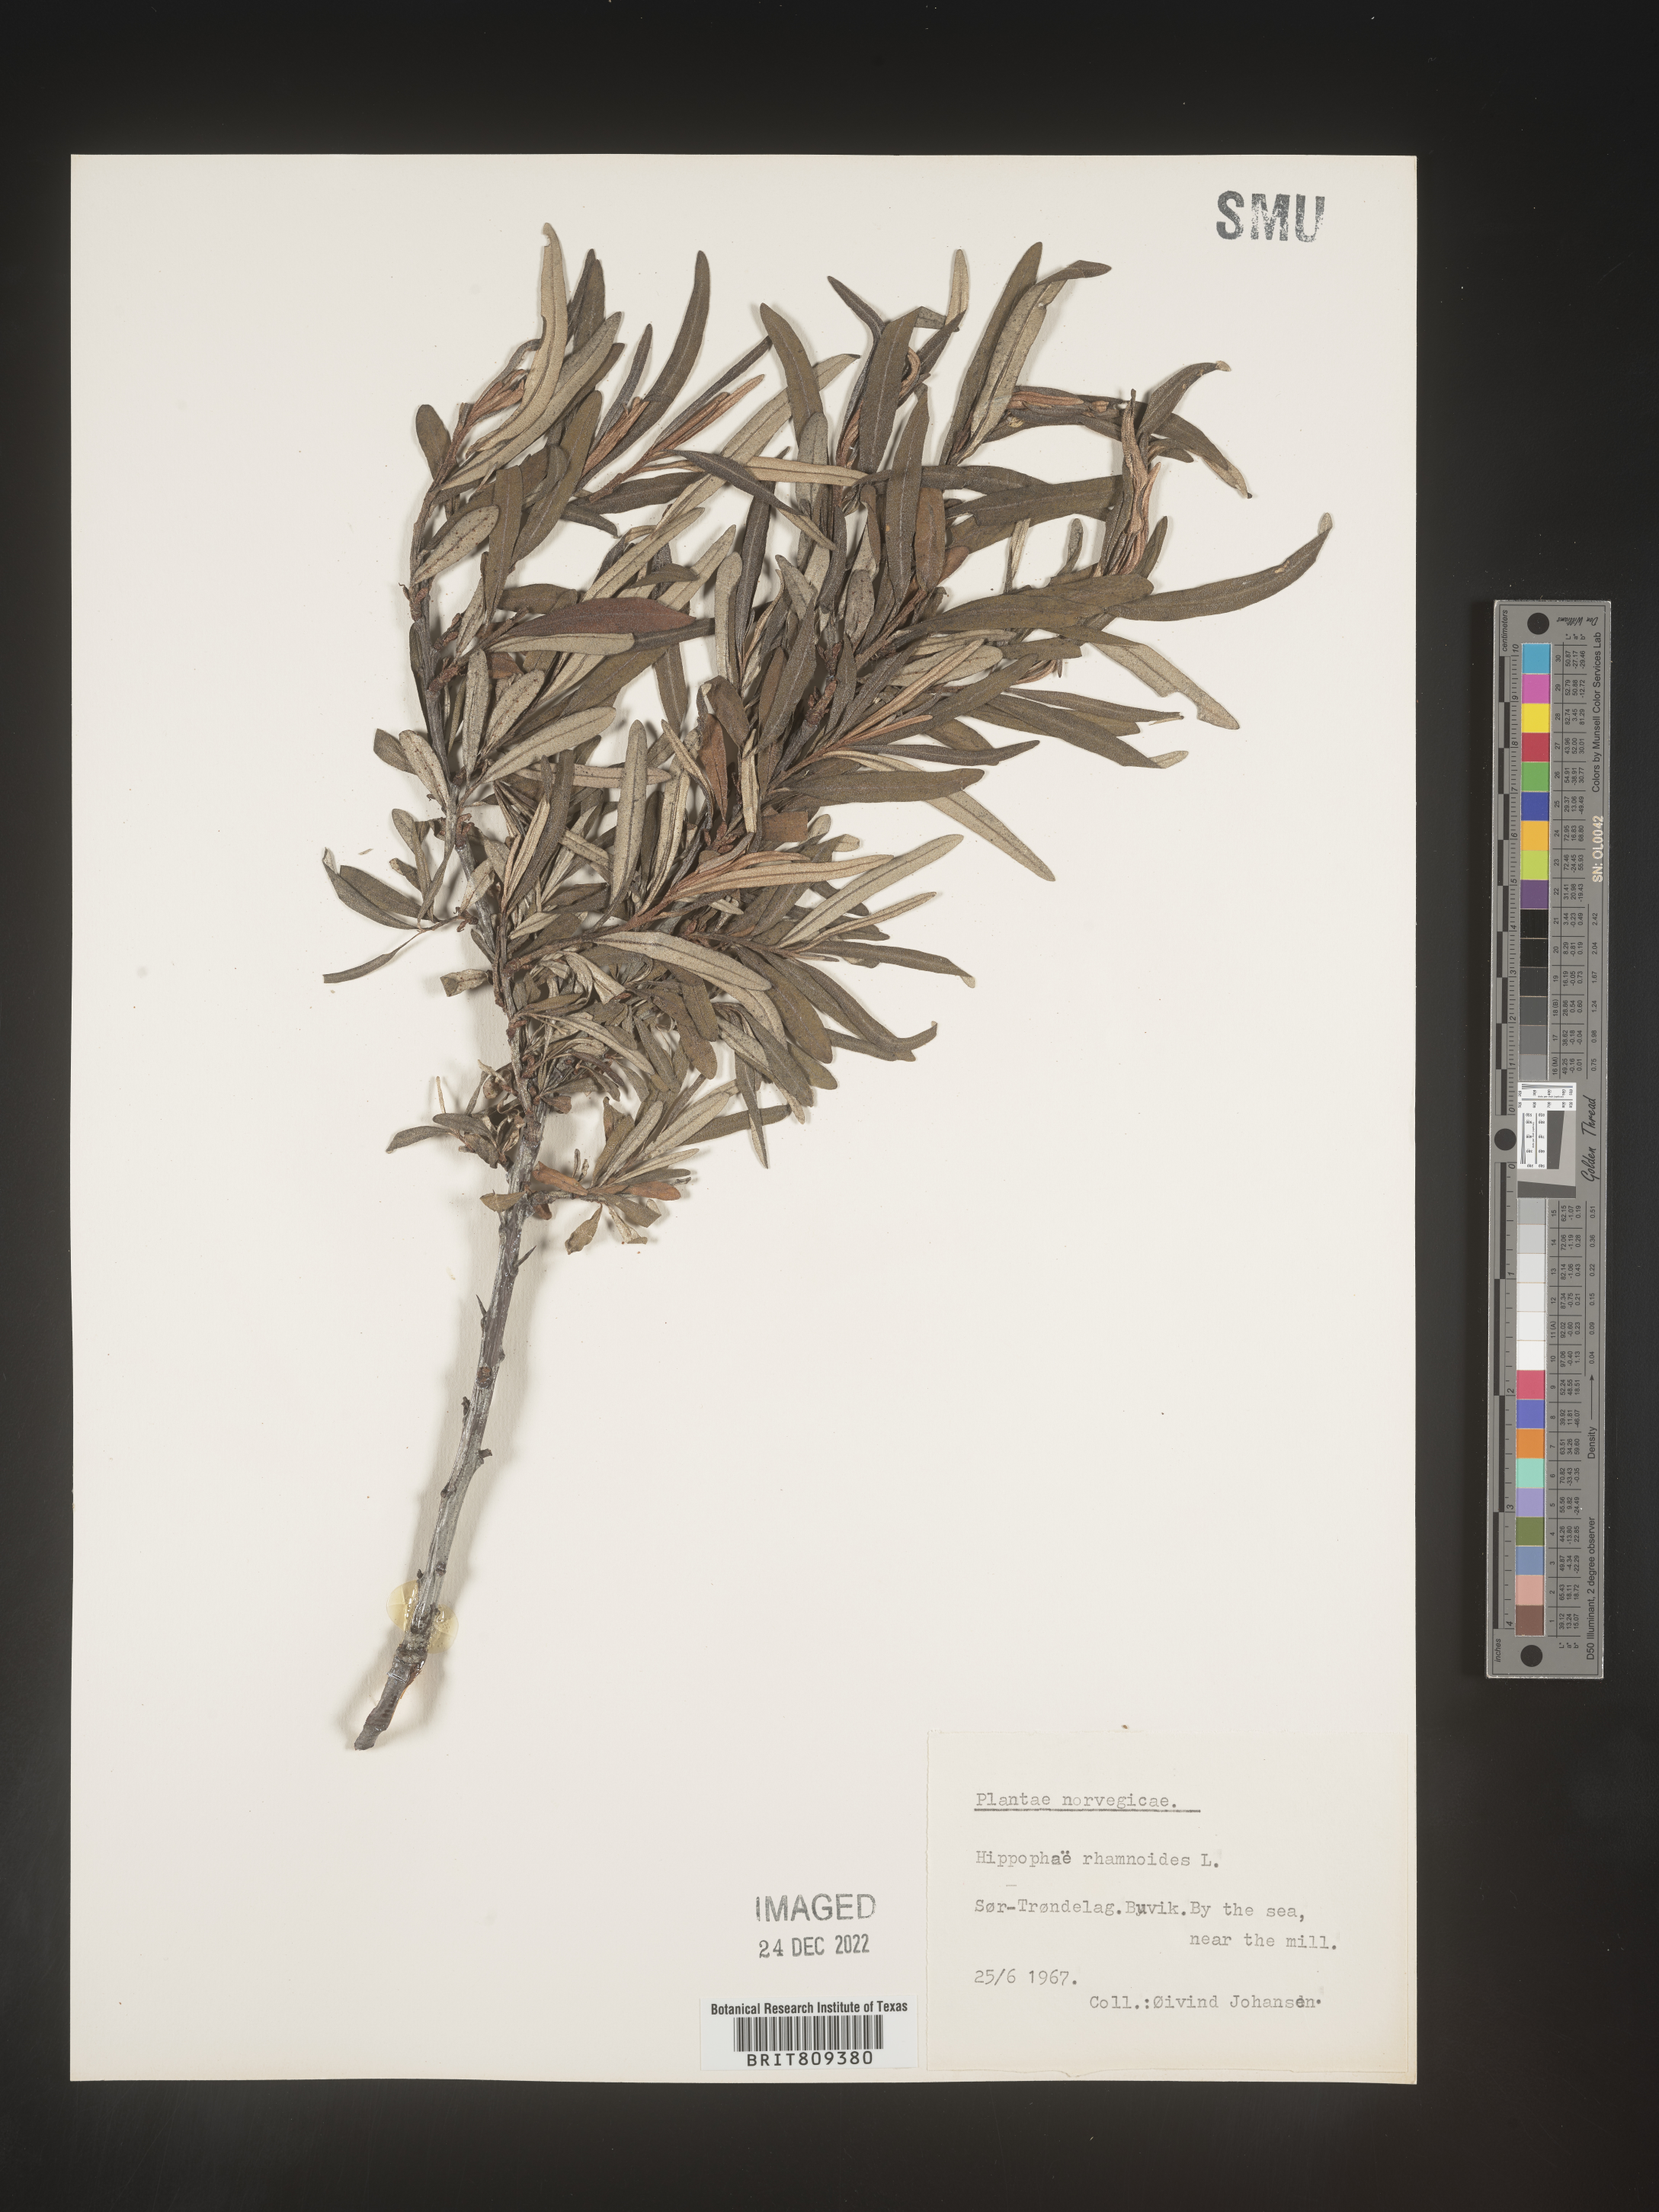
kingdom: Plantae
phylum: Tracheophyta
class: Magnoliopsida
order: Rosales
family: Elaeagnaceae
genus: Hippophae
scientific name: Hippophae
